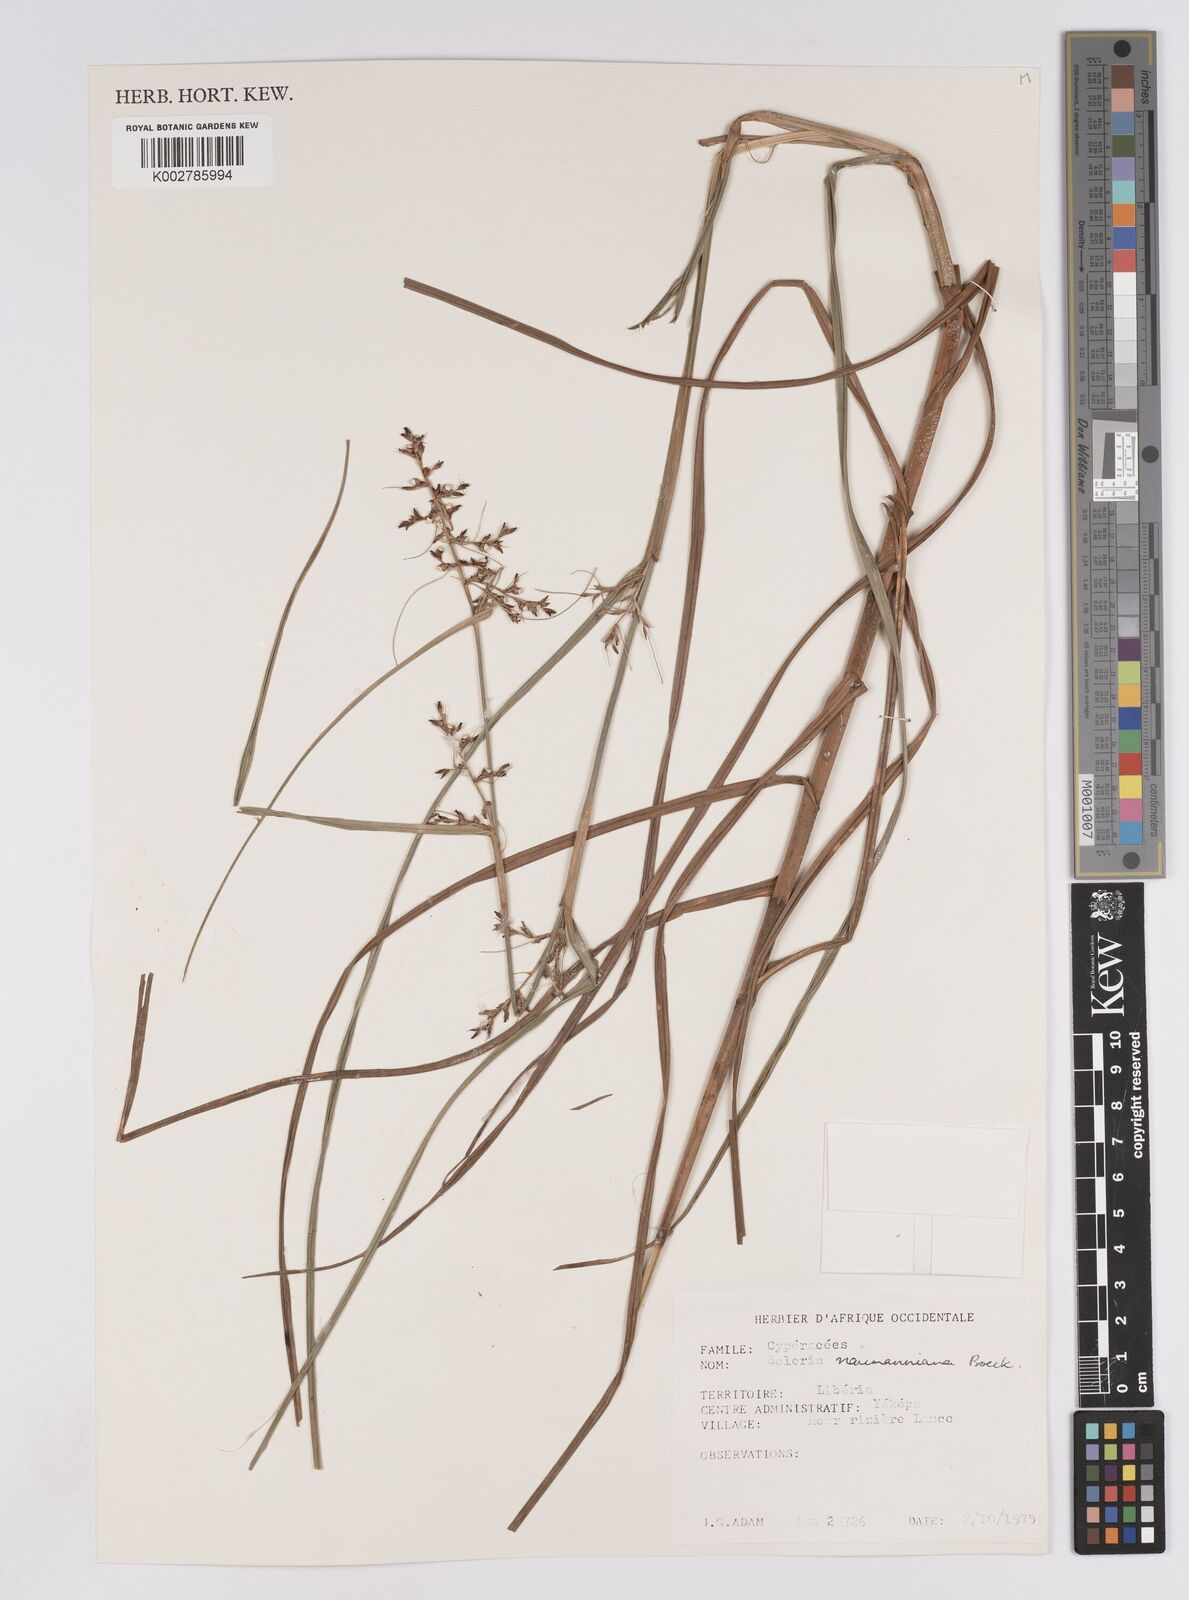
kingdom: Plantae
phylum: Tracheophyta
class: Liliopsida
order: Poales
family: Cyperaceae
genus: Scleria
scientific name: Scleria naumanniana
